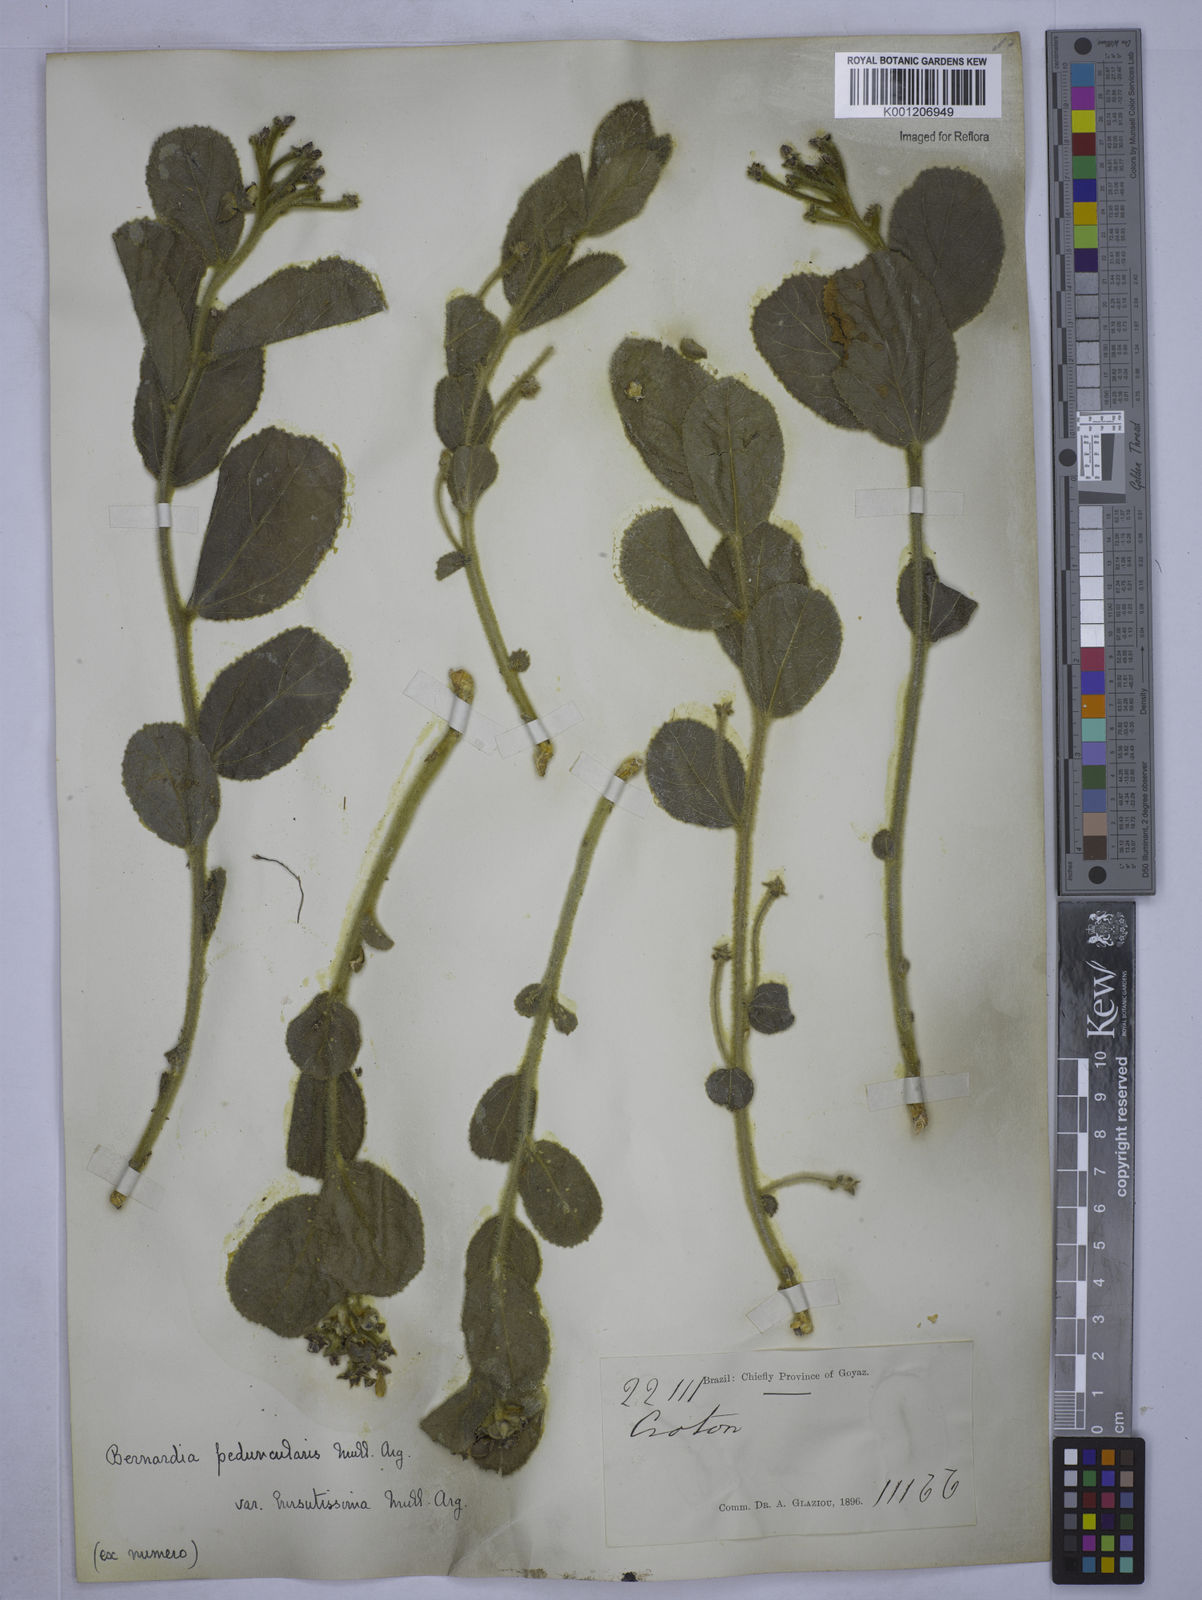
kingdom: Plantae
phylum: Tracheophyta
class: Magnoliopsida
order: Malpighiales
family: Euphorbiaceae
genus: Bernardia
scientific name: Bernardia
